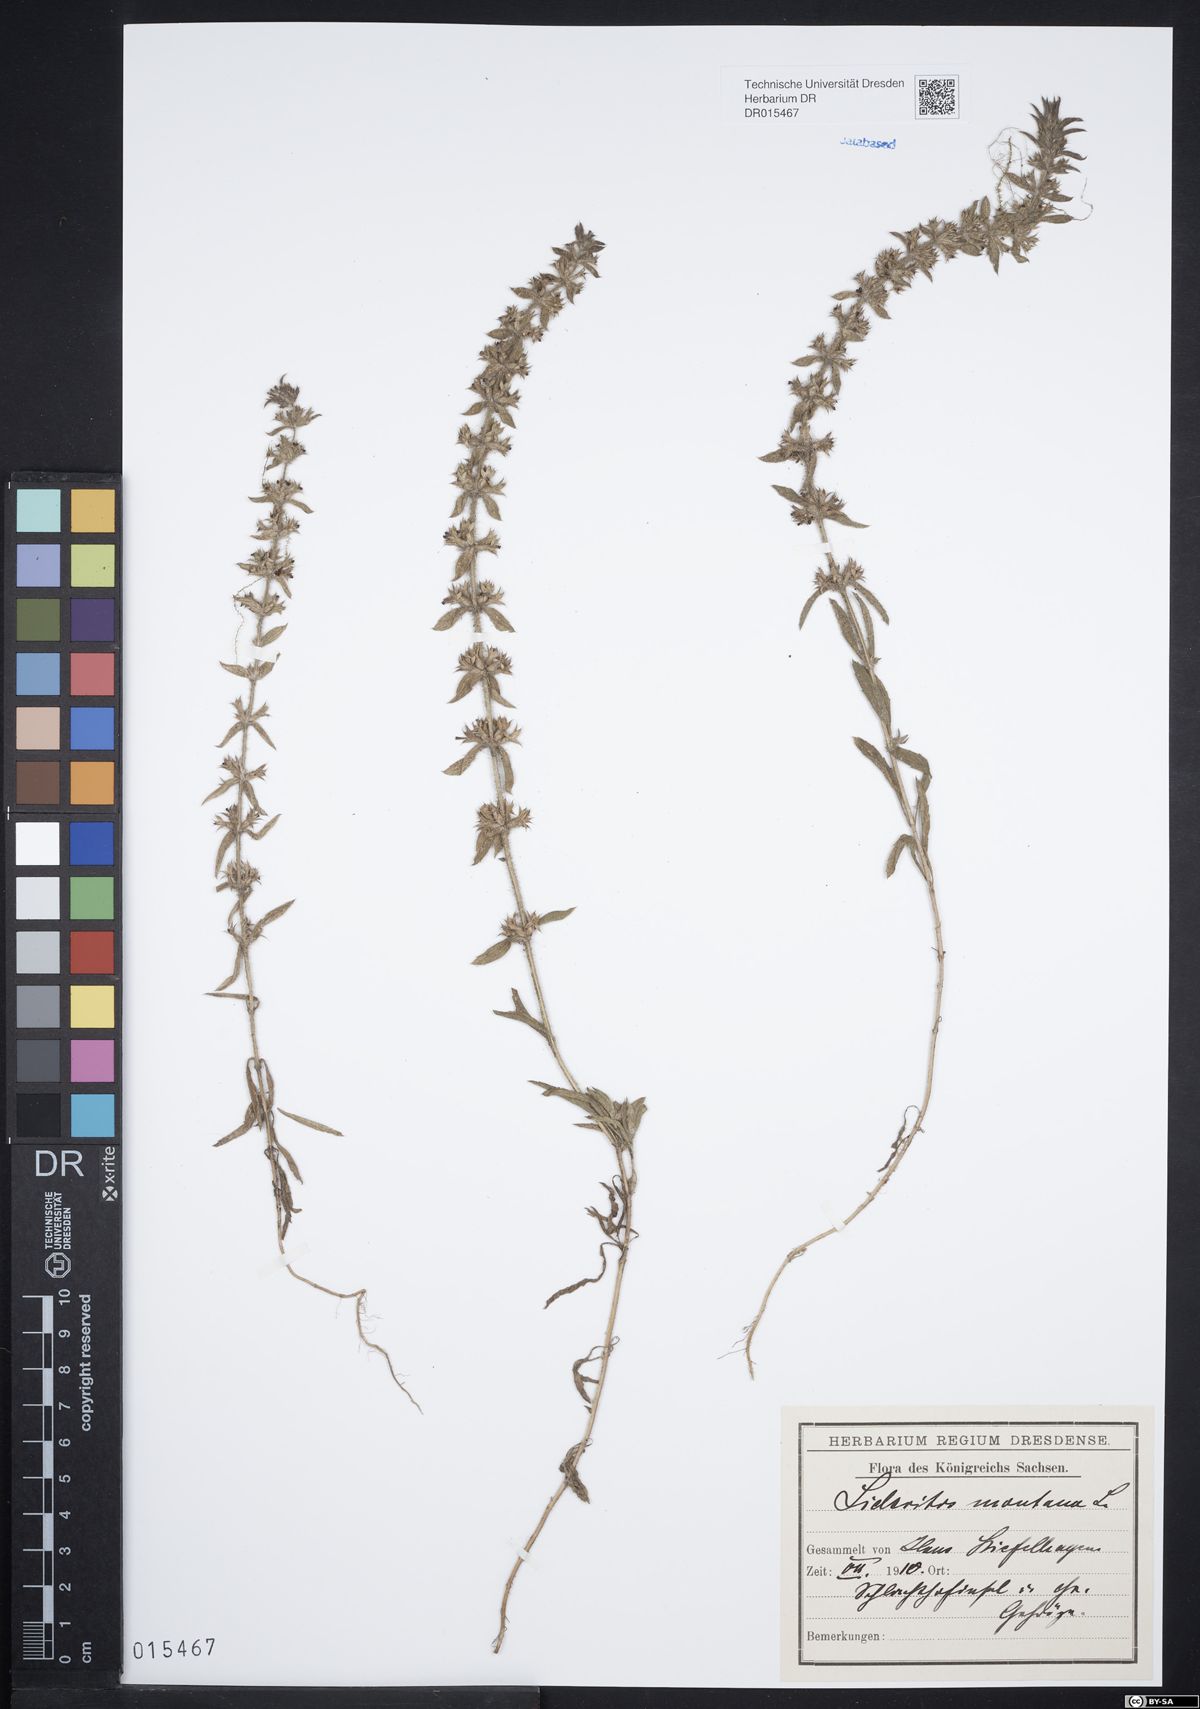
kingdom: Plantae
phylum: Tracheophyta
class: Magnoliopsida
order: Lamiales
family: Lamiaceae
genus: Sideritis
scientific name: Sideritis montana
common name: Mountain ironwort
